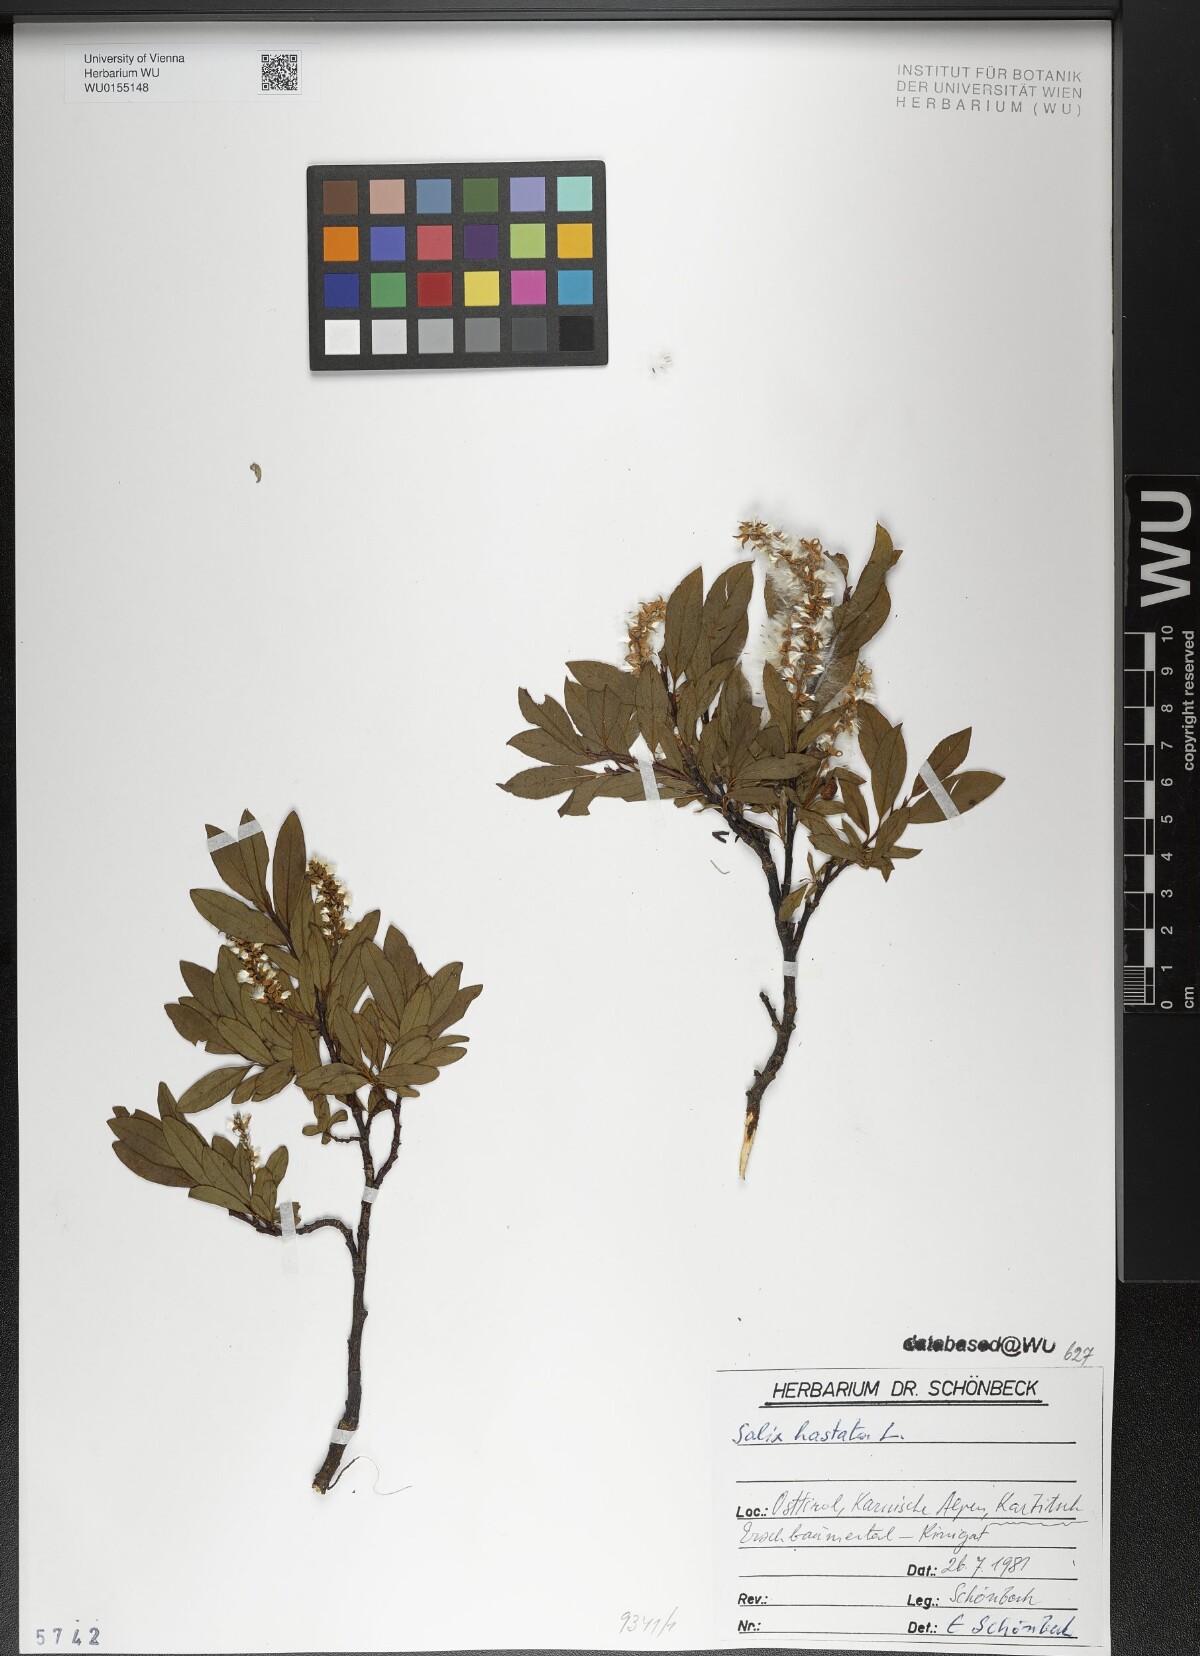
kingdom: Plantae
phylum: Tracheophyta
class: Magnoliopsida
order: Malpighiales
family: Salicaceae
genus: Salix
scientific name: Salix hastata
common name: Halberd willow
